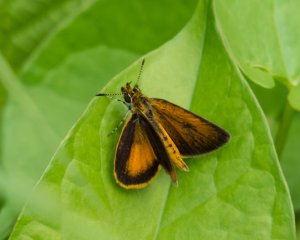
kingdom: Animalia
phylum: Arthropoda
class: Insecta
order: Lepidoptera
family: Hesperiidae
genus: Ancyloxypha
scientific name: Ancyloxypha numitor
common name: Least Skipper
